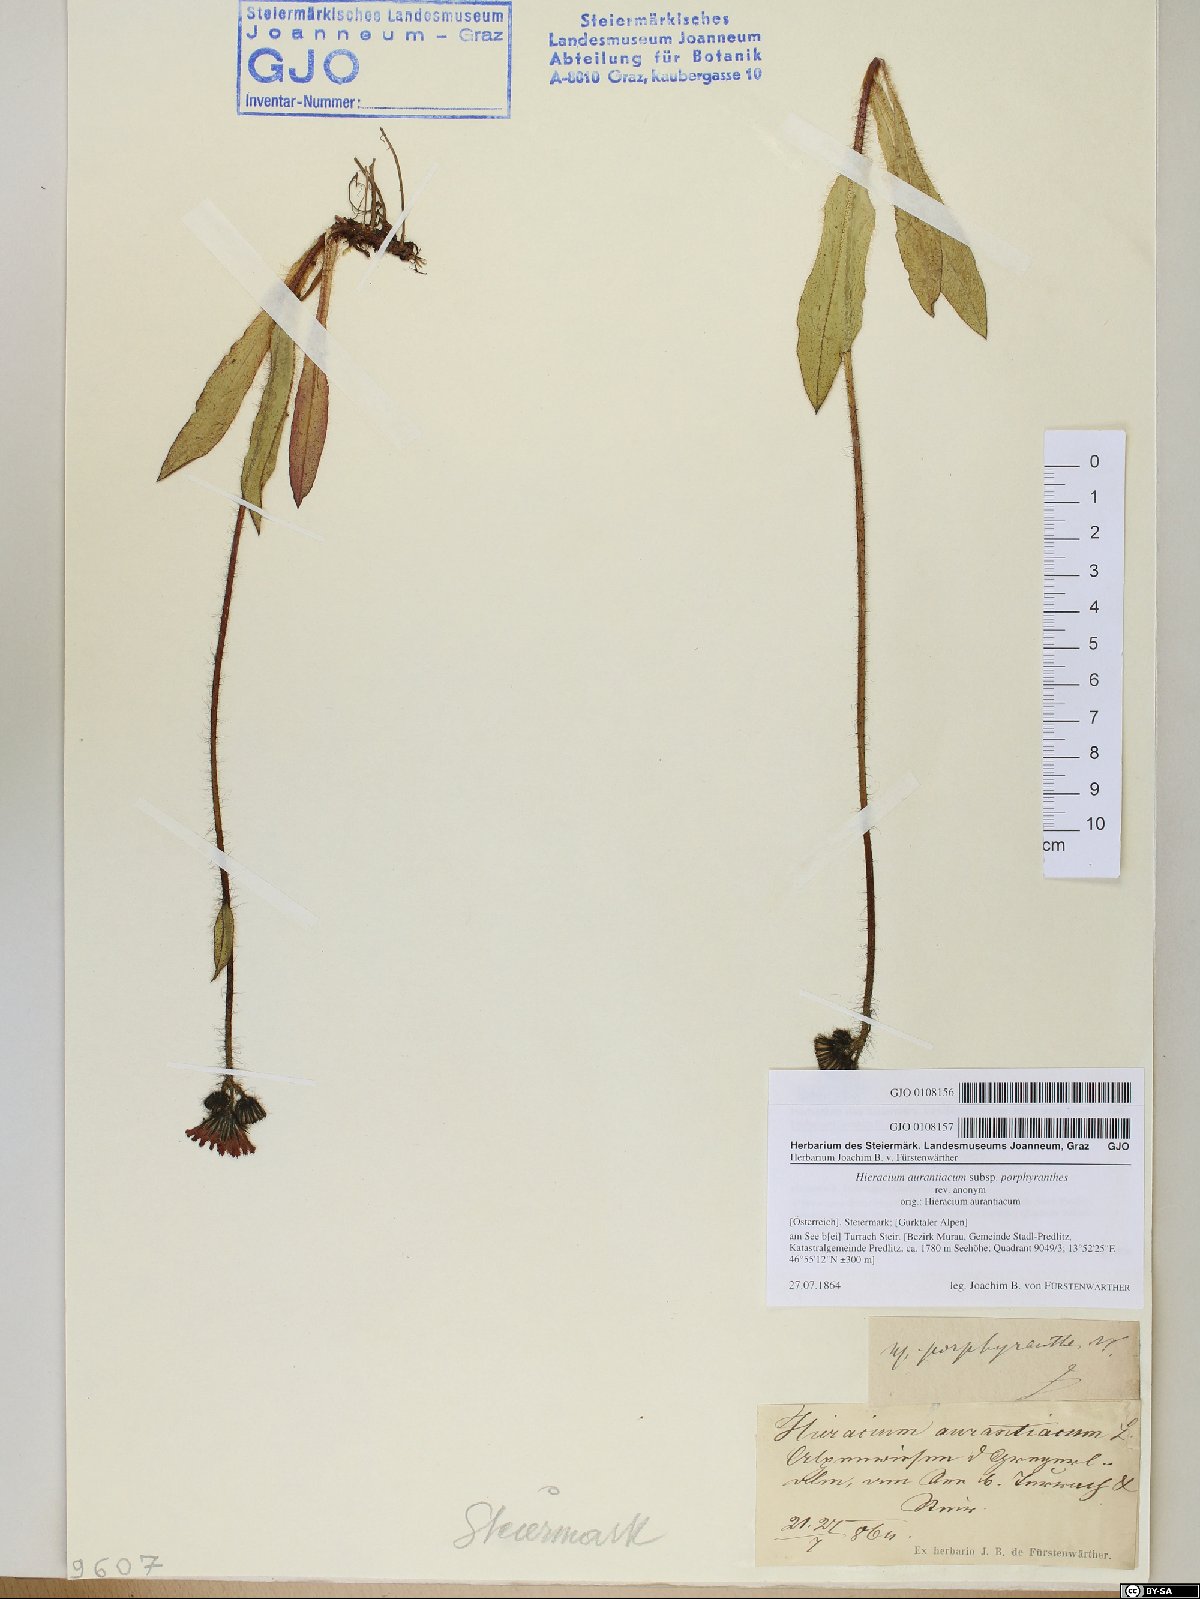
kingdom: Plantae
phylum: Tracheophyta
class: Magnoliopsida
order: Asterales
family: Asteraceae
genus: Pilosella
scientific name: Pilosella aurantiaca
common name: Fox-and-cubs
